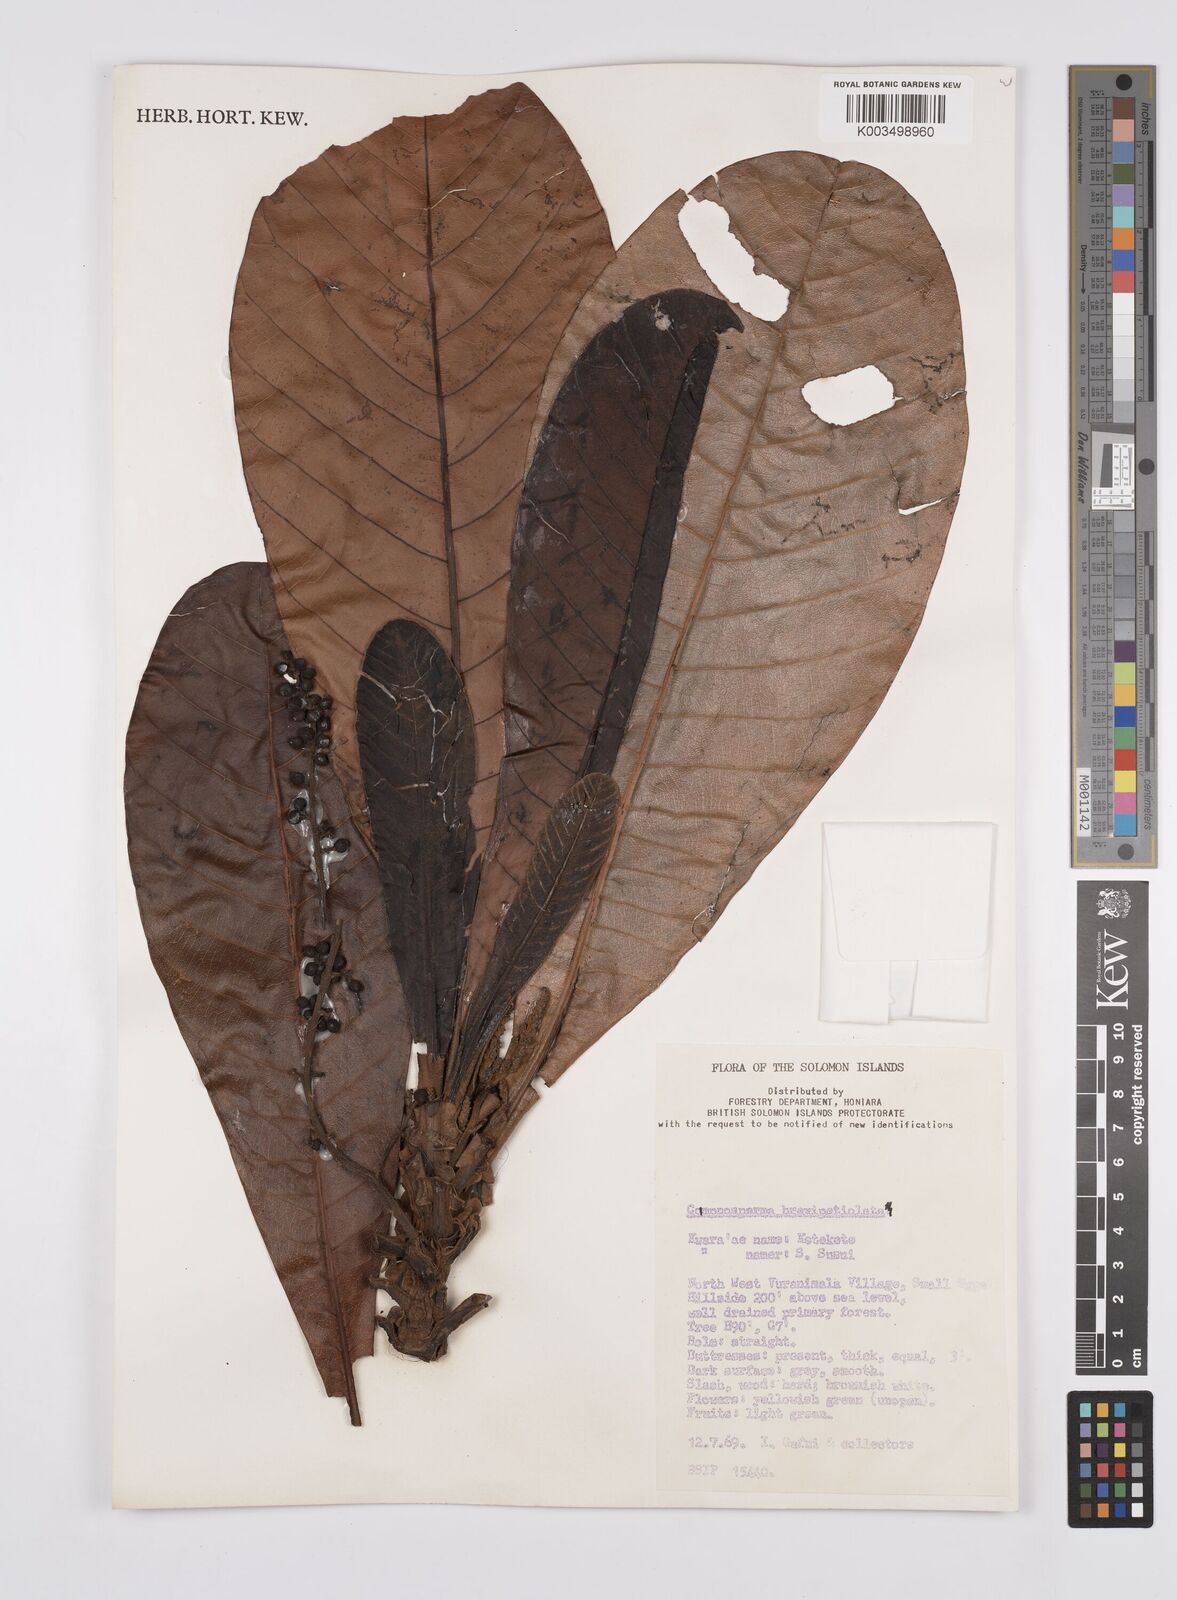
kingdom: Plantae
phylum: Tracheophyta
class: Magnoliopsida
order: Sapindales
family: Anacardiaceae
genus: Campnosperma
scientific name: Campnosperma brevipetiolatum
